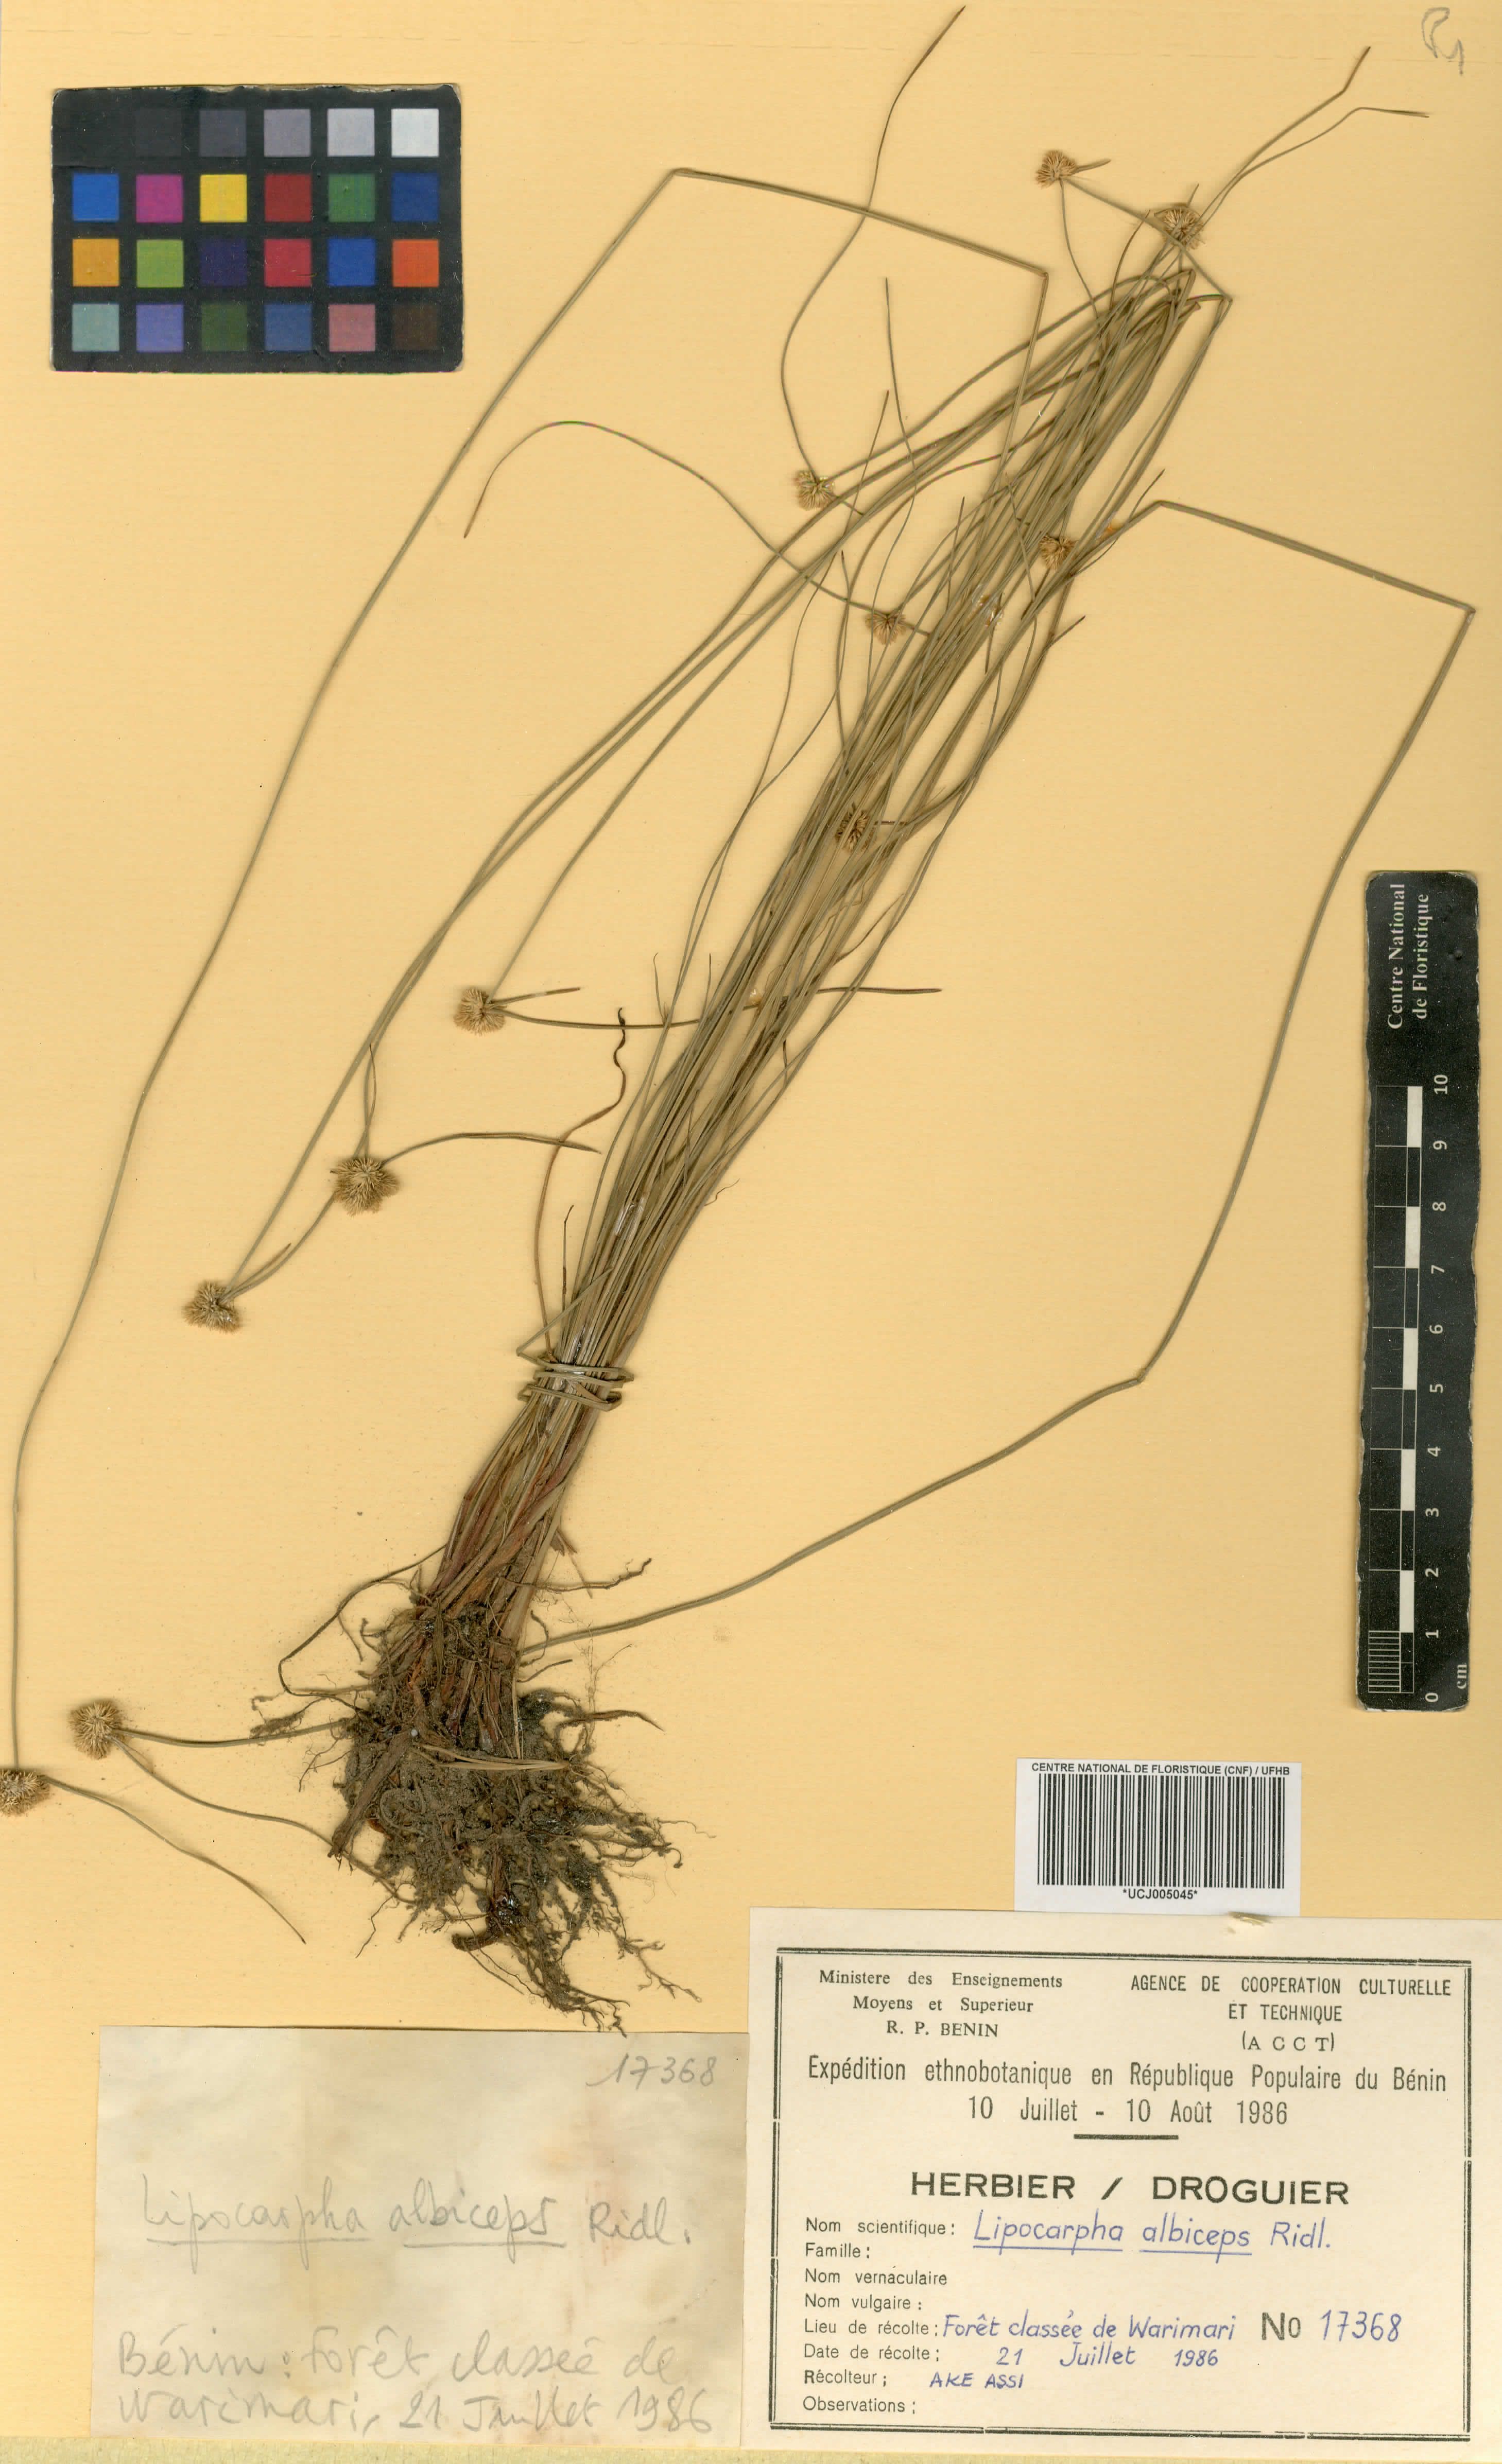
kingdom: Plantae
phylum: Tracheophyta
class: Liliopsida
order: Poales
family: Cyperaceae
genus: Cyperus
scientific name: Cyperus purpureoluteus
